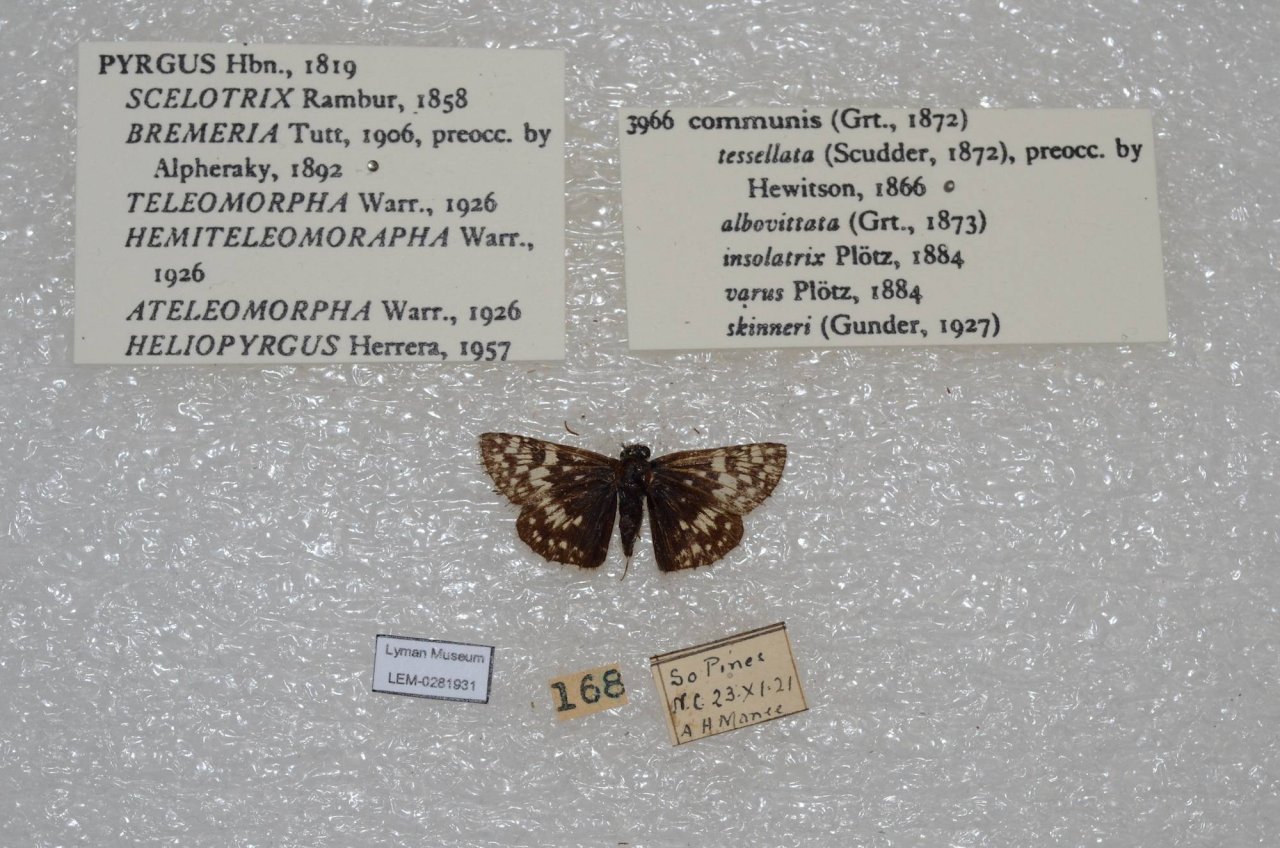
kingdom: Animalia
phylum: Arthropoda
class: Insecta
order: Lepidoptera
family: Hesperiidae
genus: Pyrgus
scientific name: Pyrgus communis
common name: Common Checkered-Skipper
